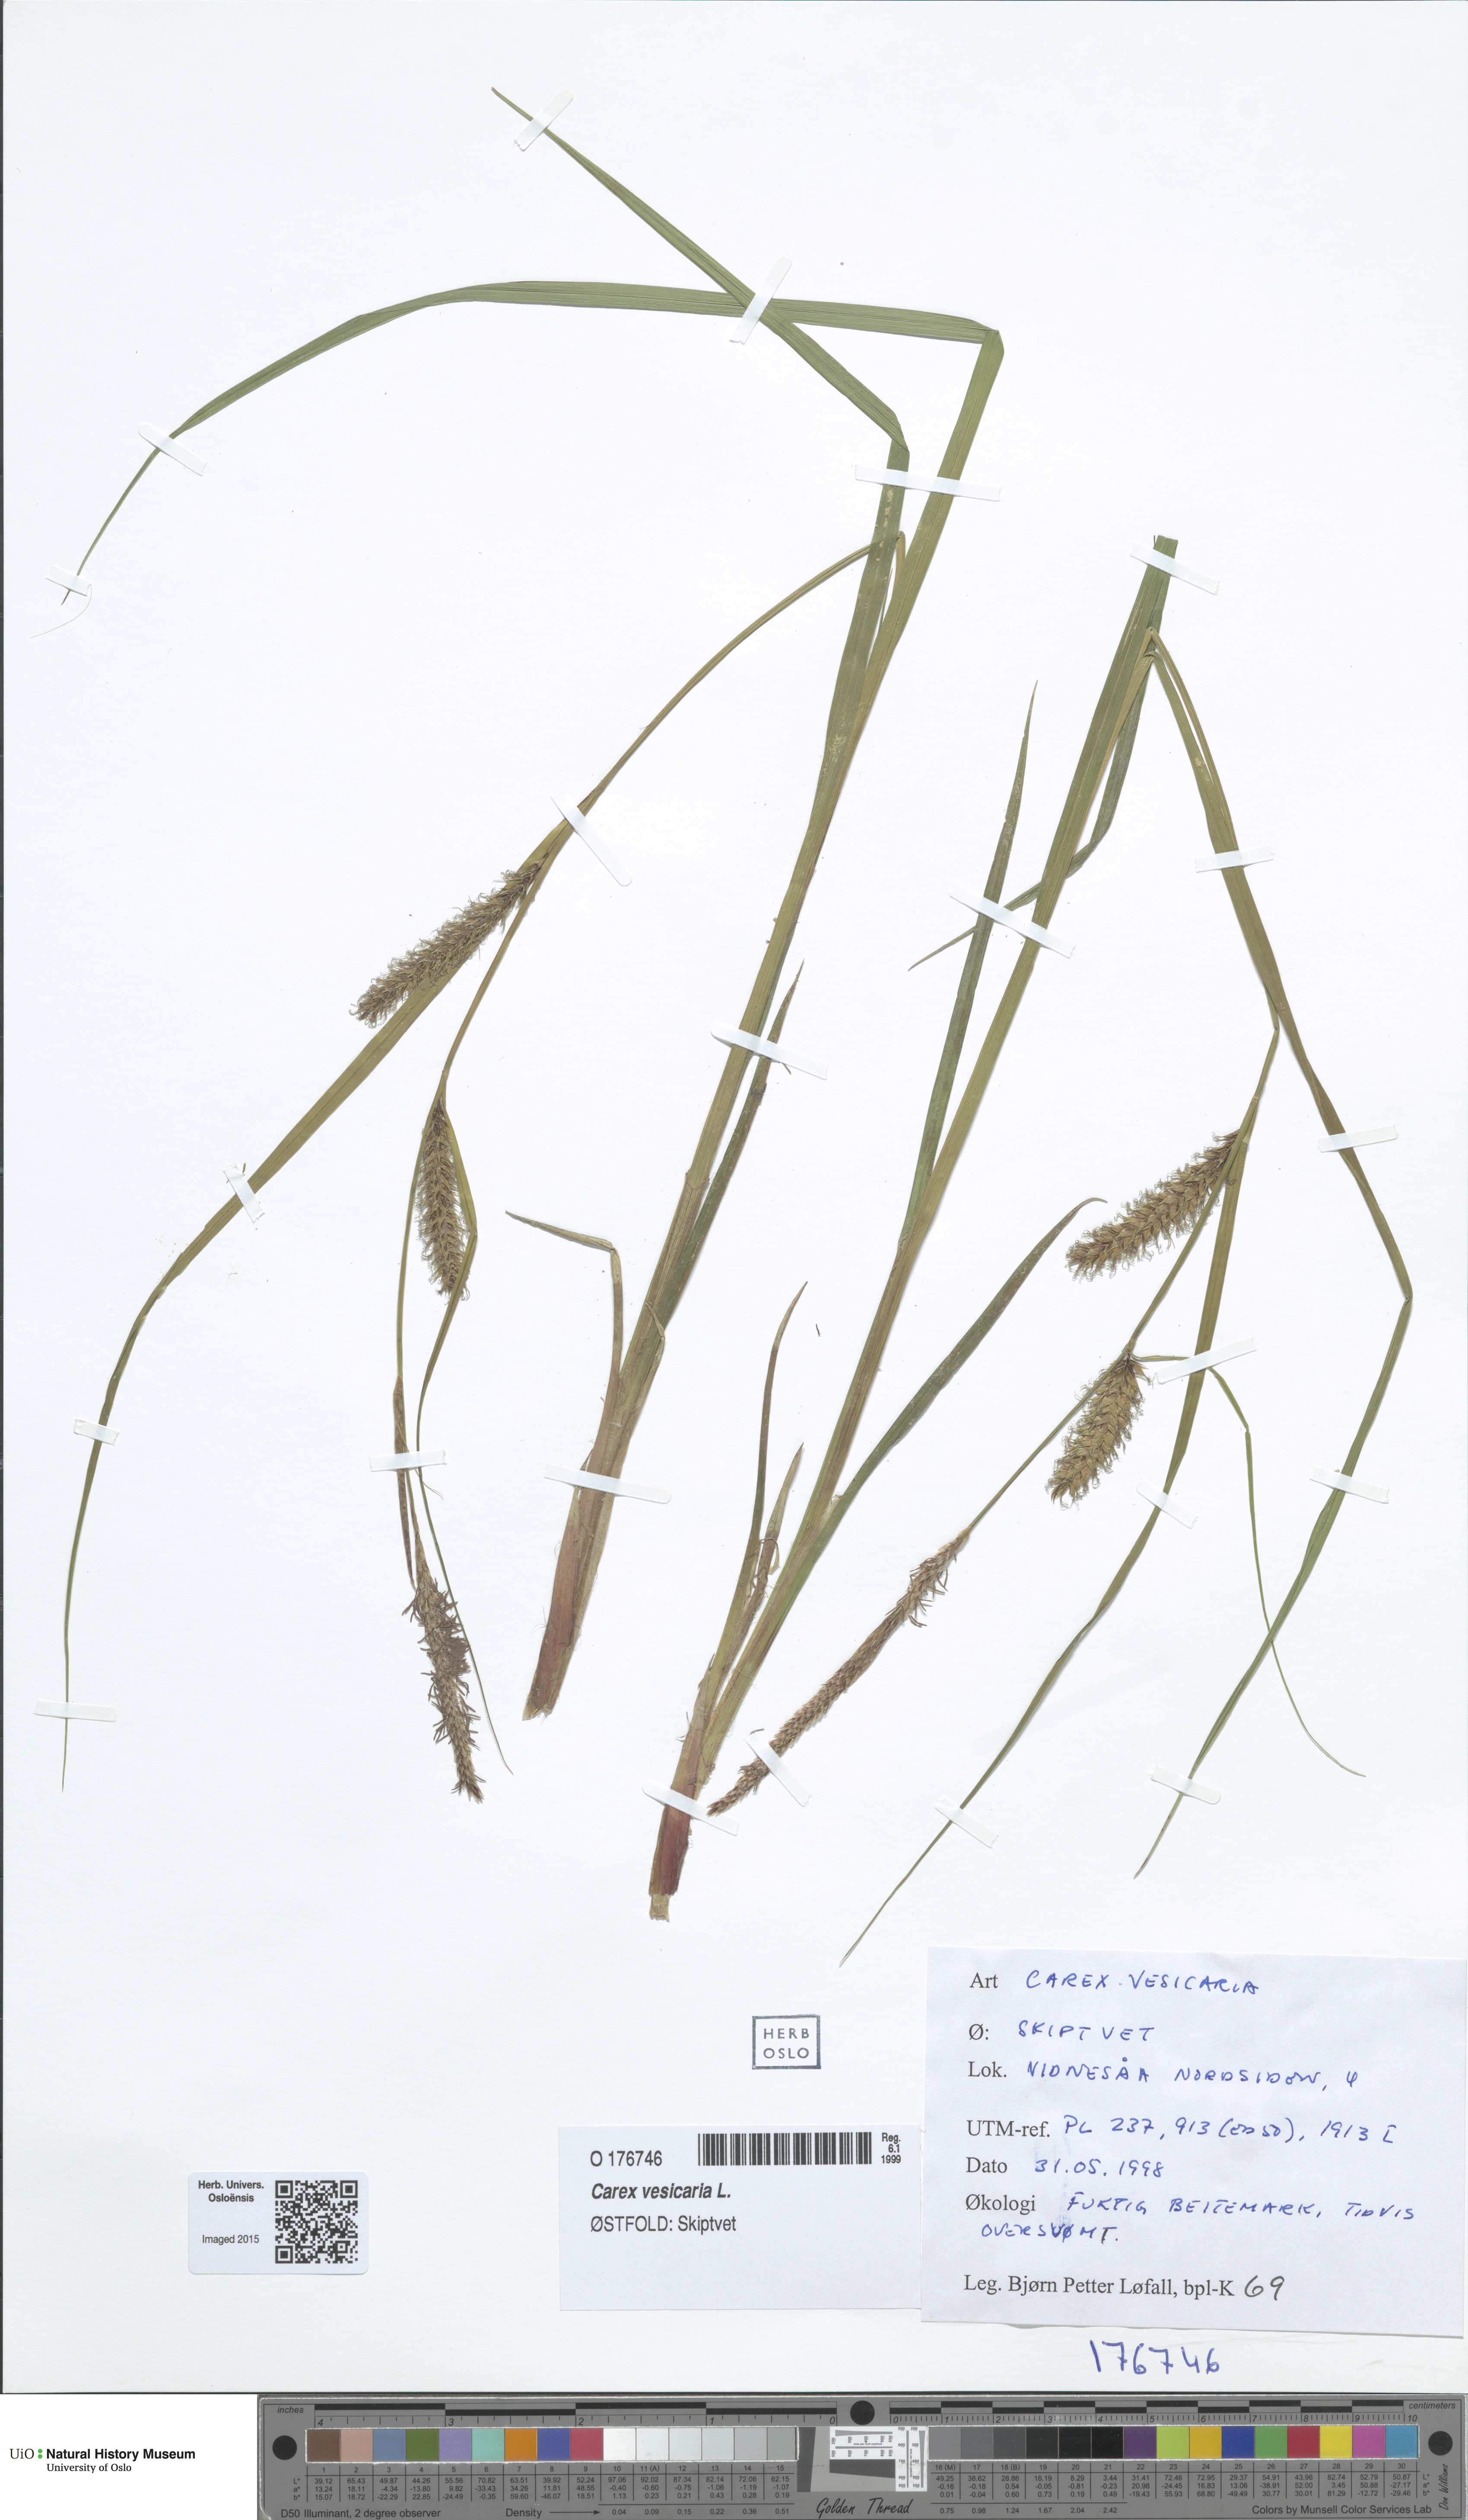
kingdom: Plantae
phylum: Tracheophyta
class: Liliopsida
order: Poales
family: Cyperaceae
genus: Carex
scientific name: Carex vesicaria
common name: Bladder-sedge
